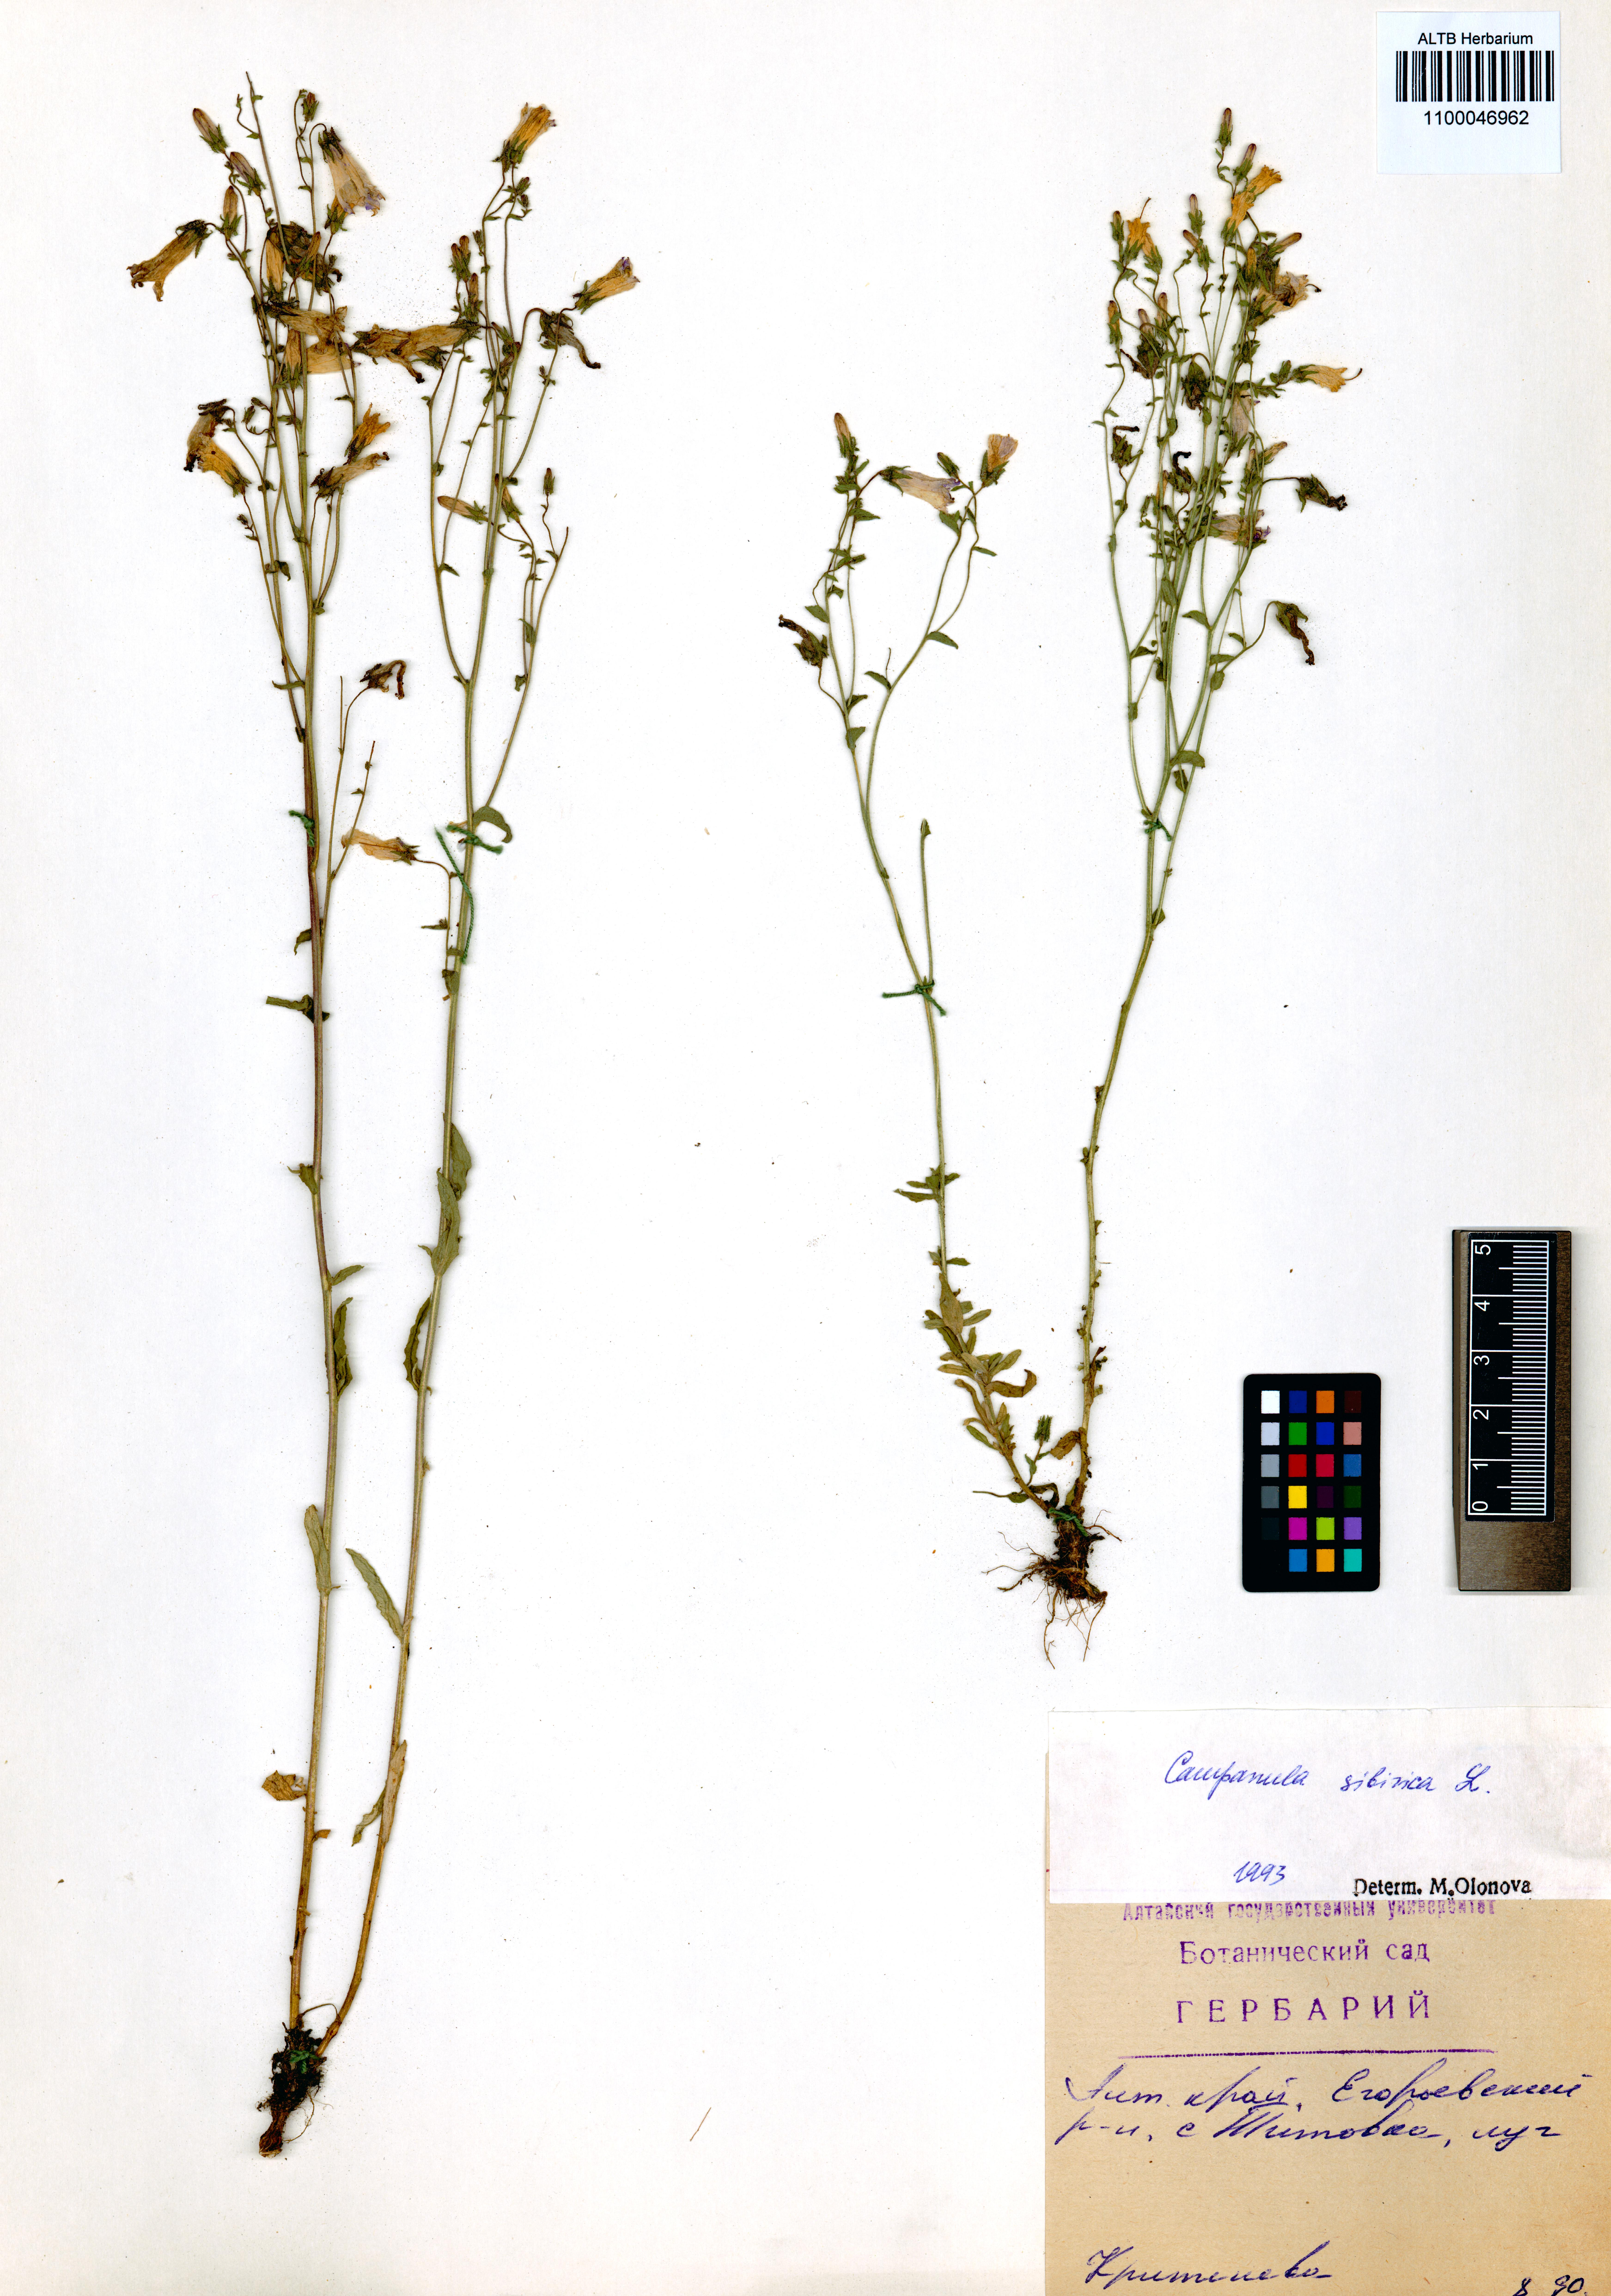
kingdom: Plantae
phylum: Tracheophyta
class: Magnoliopsida
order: Asterales
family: Campanulaceae
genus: Campanula
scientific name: Campanula sibirica
